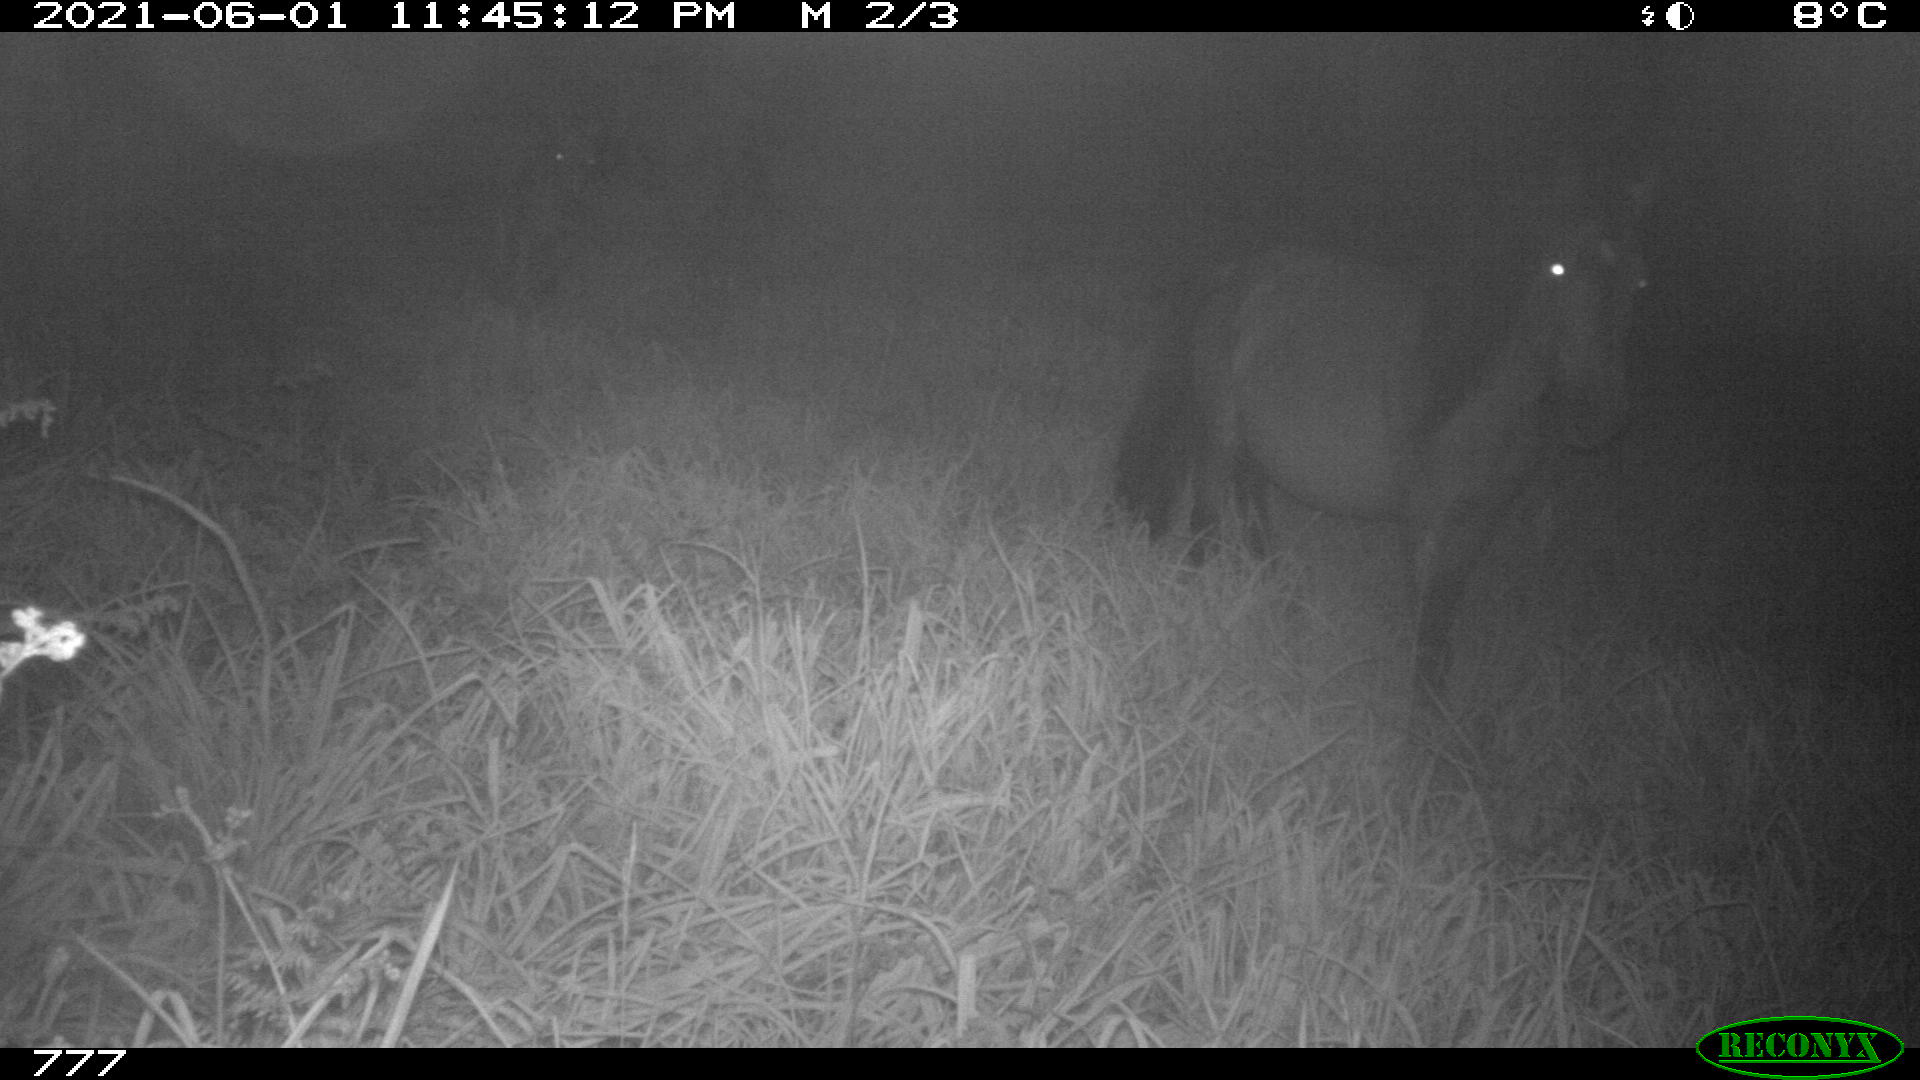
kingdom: Animalia
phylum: Chordata
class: Mammalia
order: Perissodactyla
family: Equidae
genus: Equus
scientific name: Equus caballus
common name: Horse
